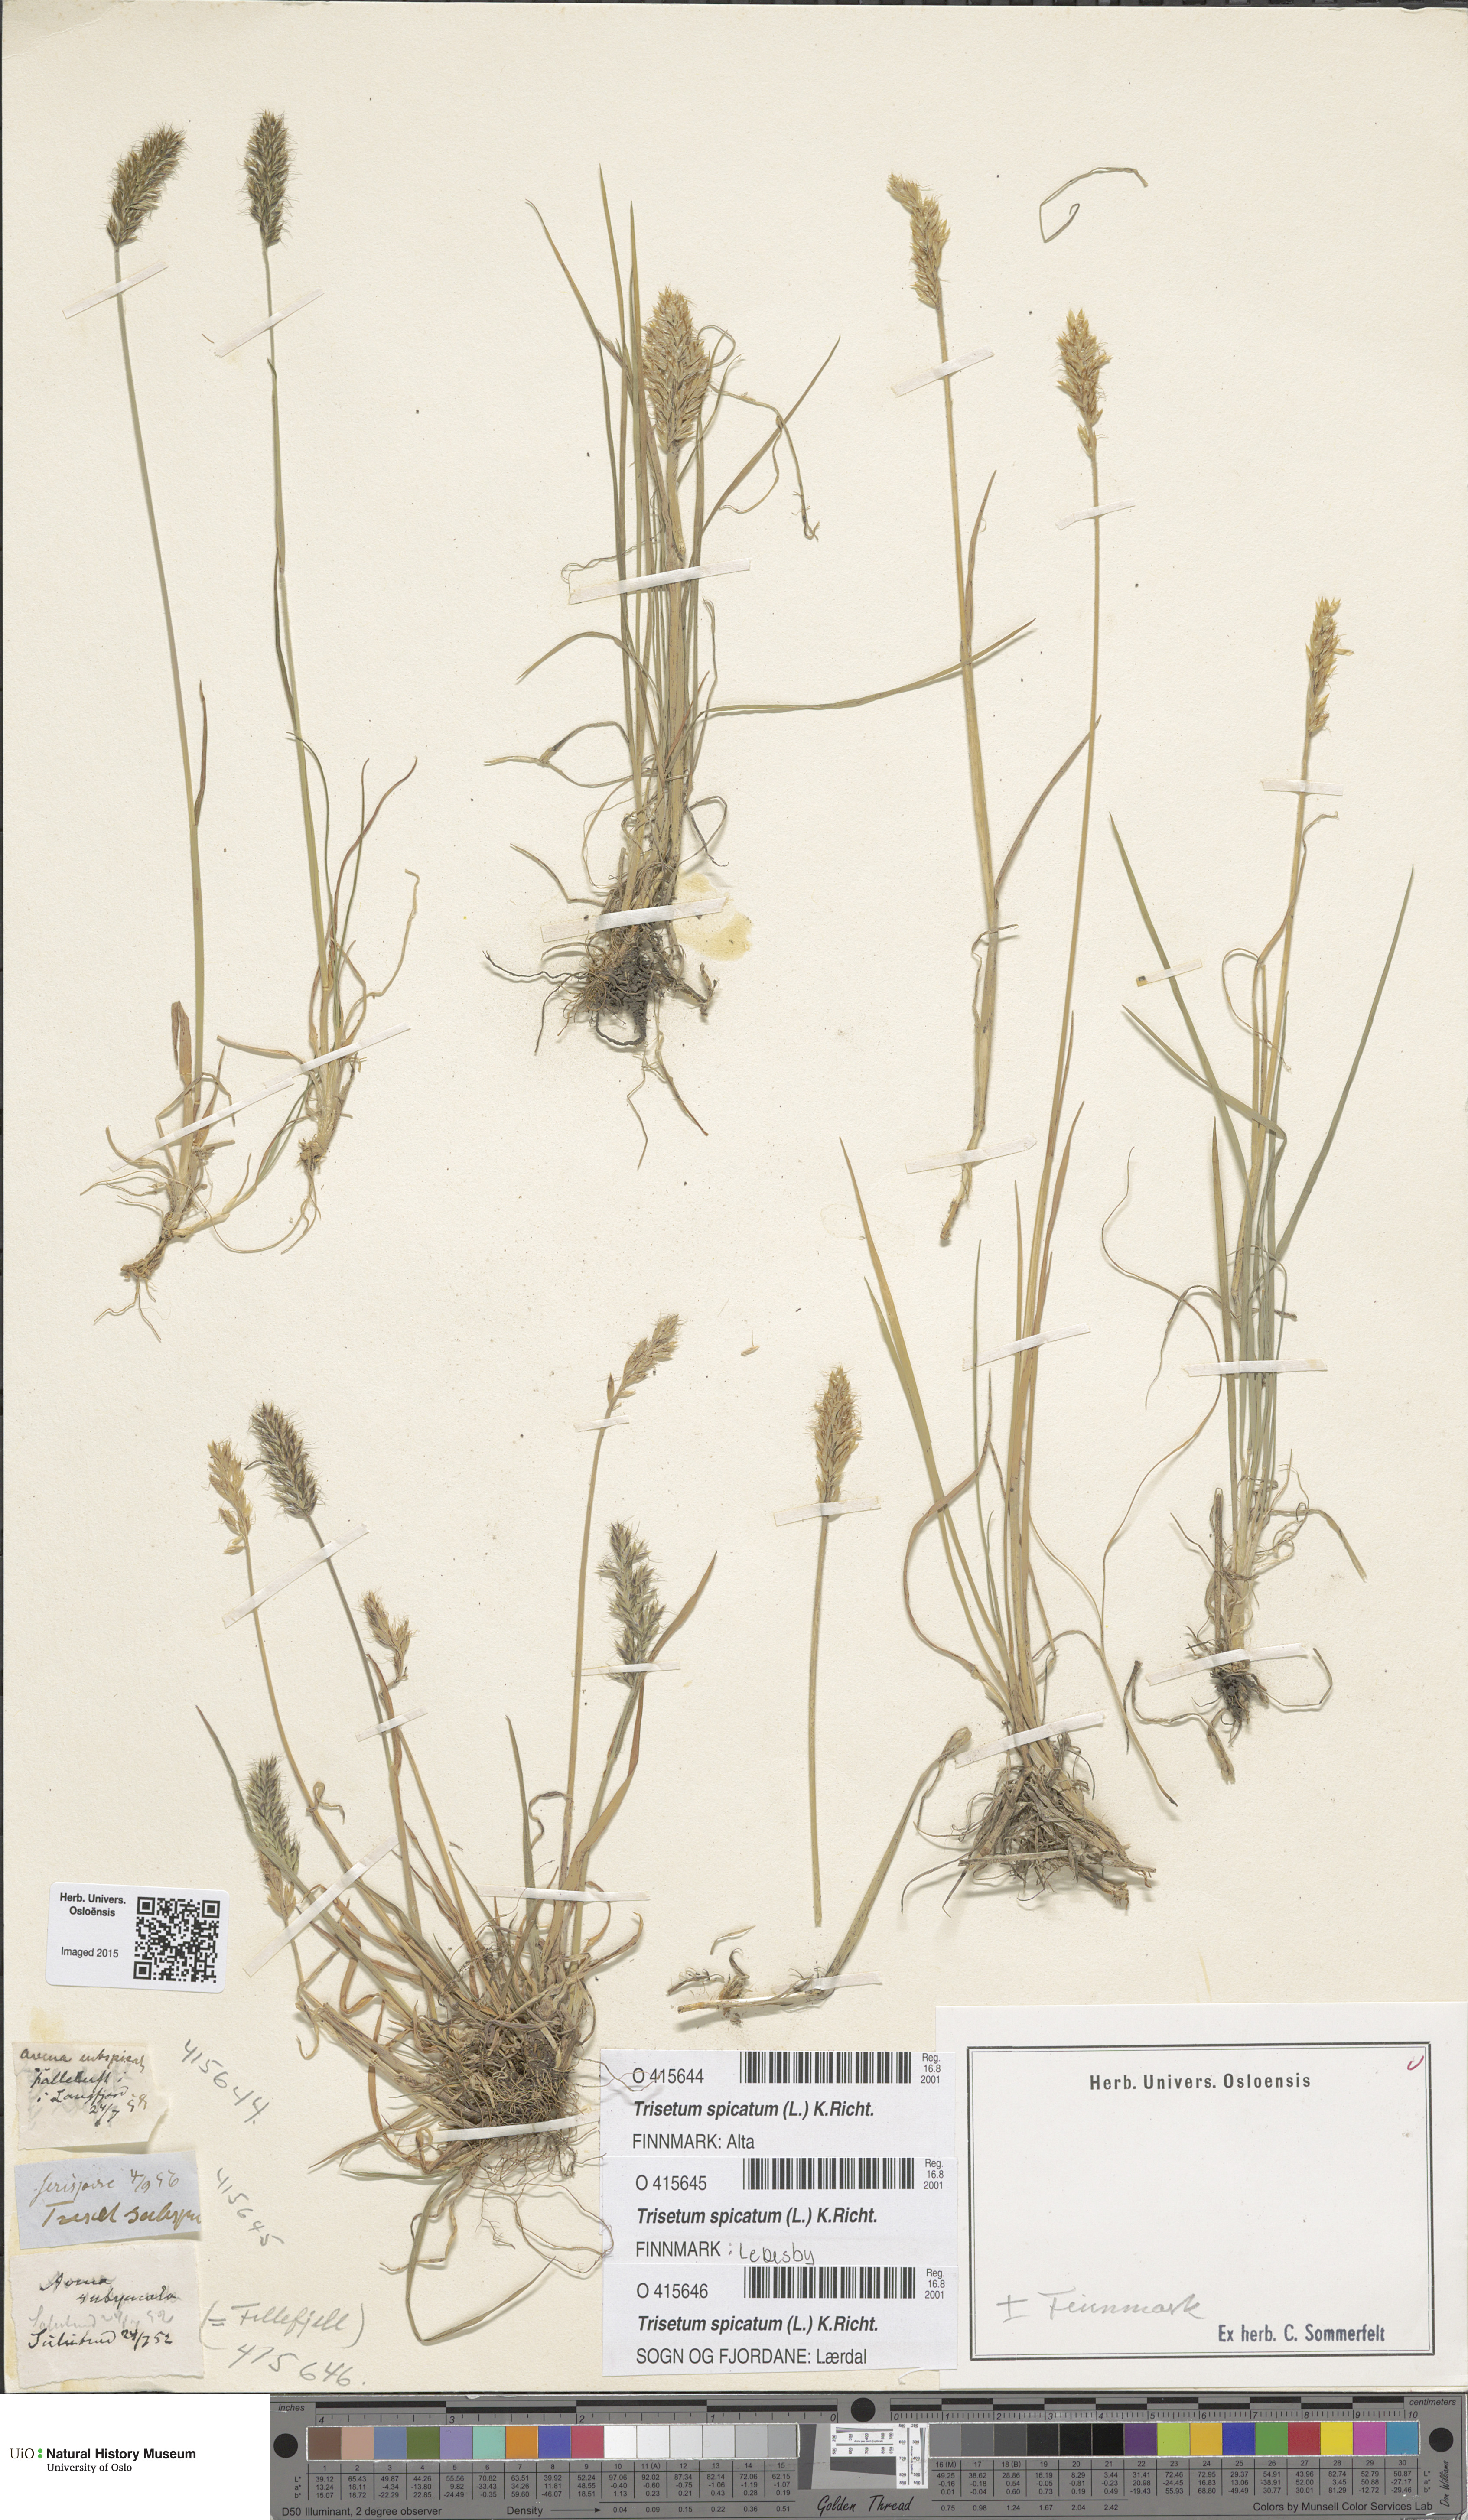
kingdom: Plantae
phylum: Tracheophyta
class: Liliopsida
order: Poales
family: Poaceae
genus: Koeleria
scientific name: Koeleria spicata
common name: Mountain trisetum
